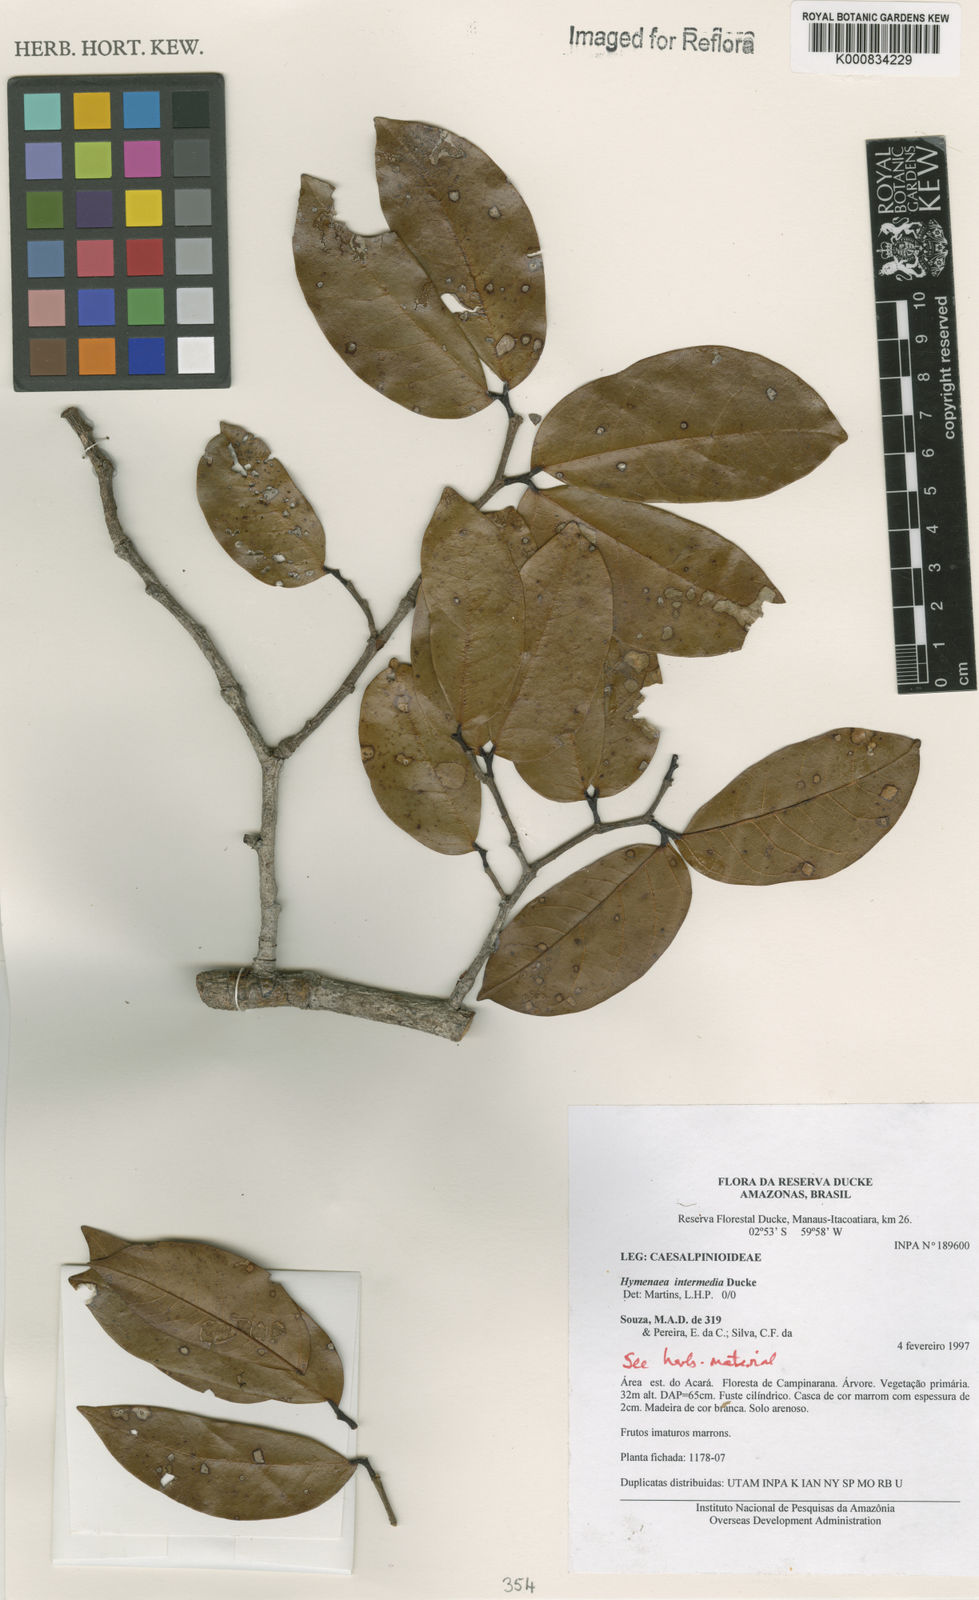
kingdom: Plantae
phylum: Tracheophyta
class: Magnoliopsida
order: Fabales
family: Fabaceae
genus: Hymenaea
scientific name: Hymenaea intermedia
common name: South american copal
